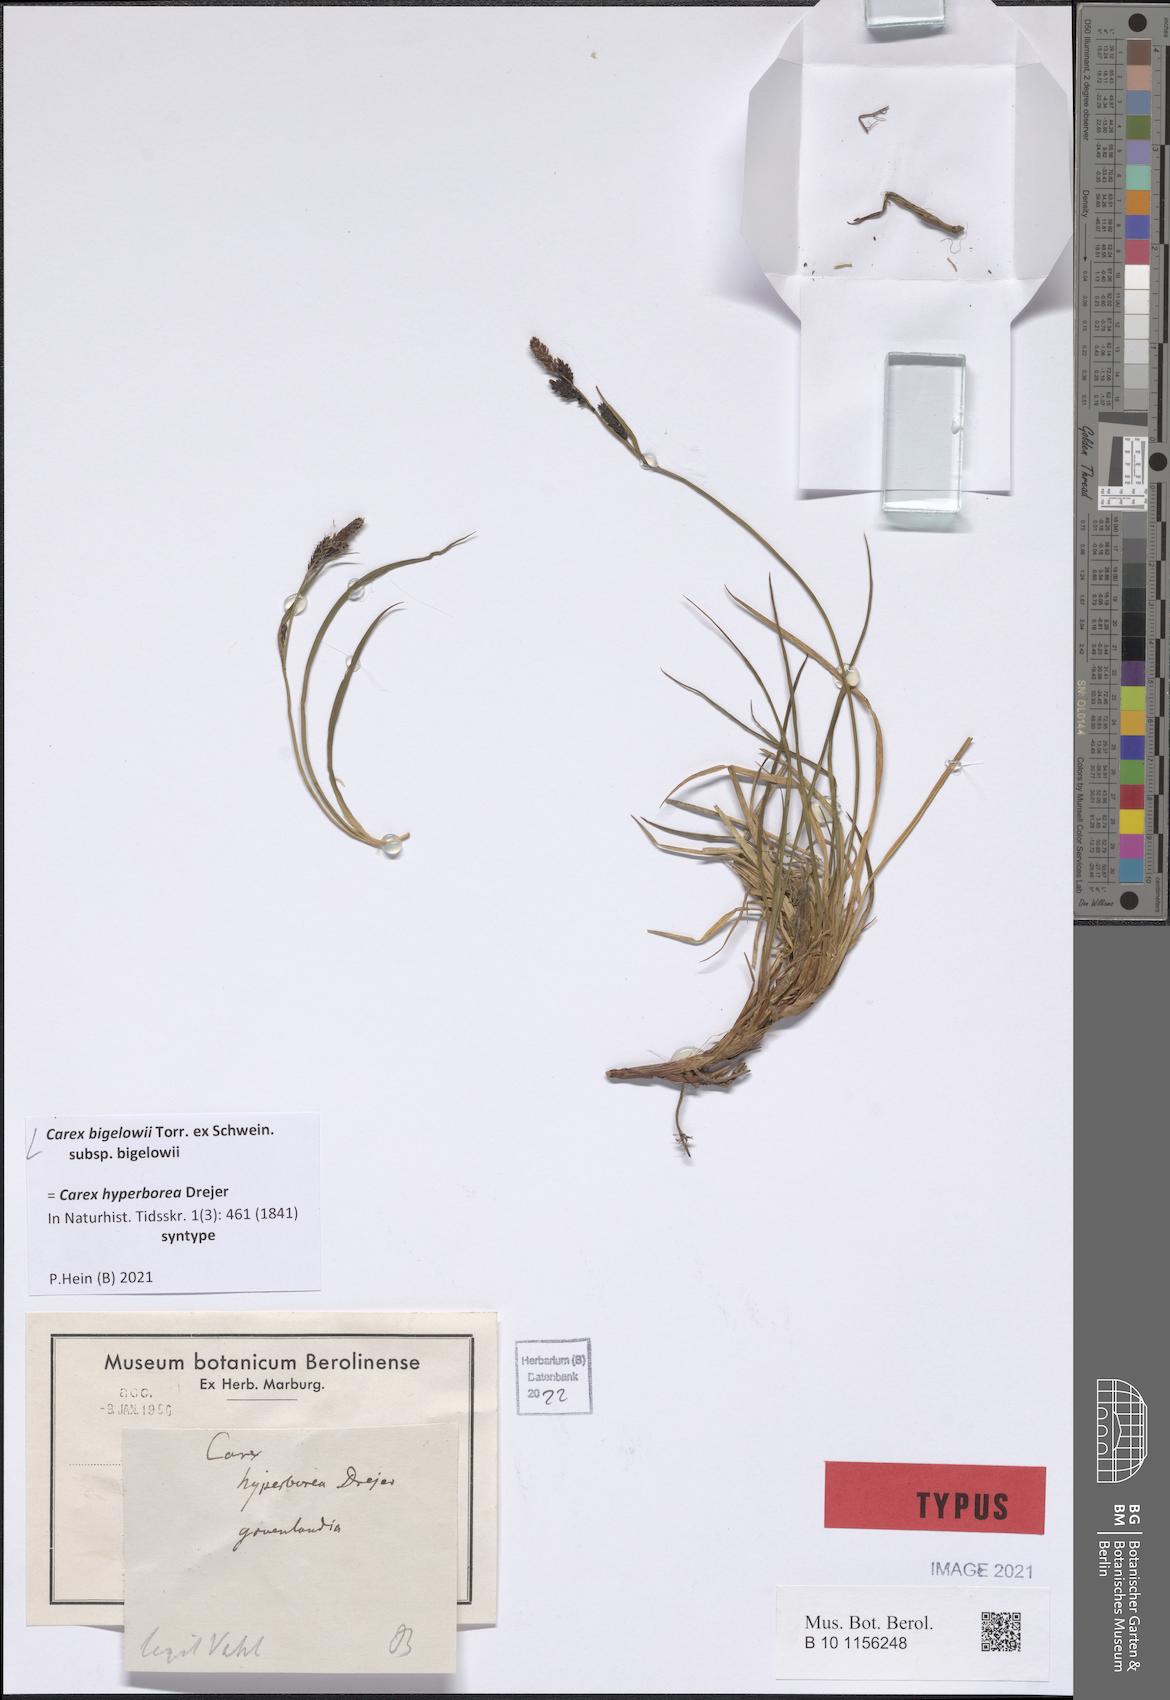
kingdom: Plantae
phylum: Tracheophyta
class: Liliopsida
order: Poales
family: Cyperaceae
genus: Carex
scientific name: Carex bigelowii
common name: Stiff sedge
